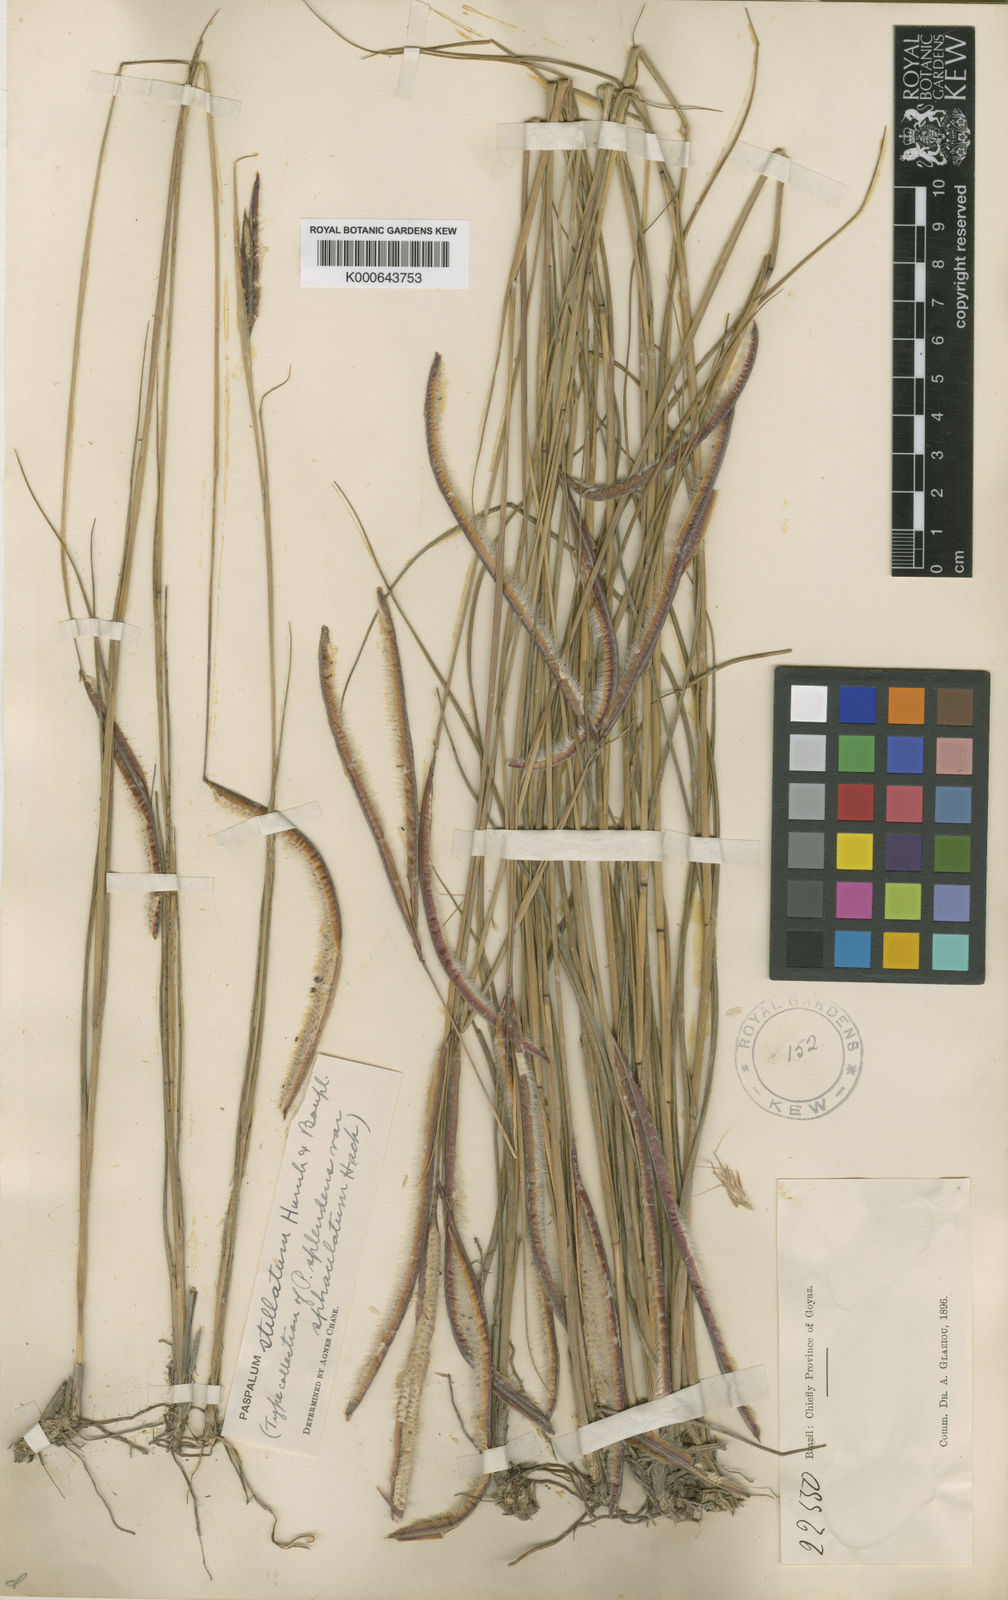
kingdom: Plantae
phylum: Tracheophyta
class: Liliopsida
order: Poales
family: Poaceae
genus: Paspalum
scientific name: Paspalum
